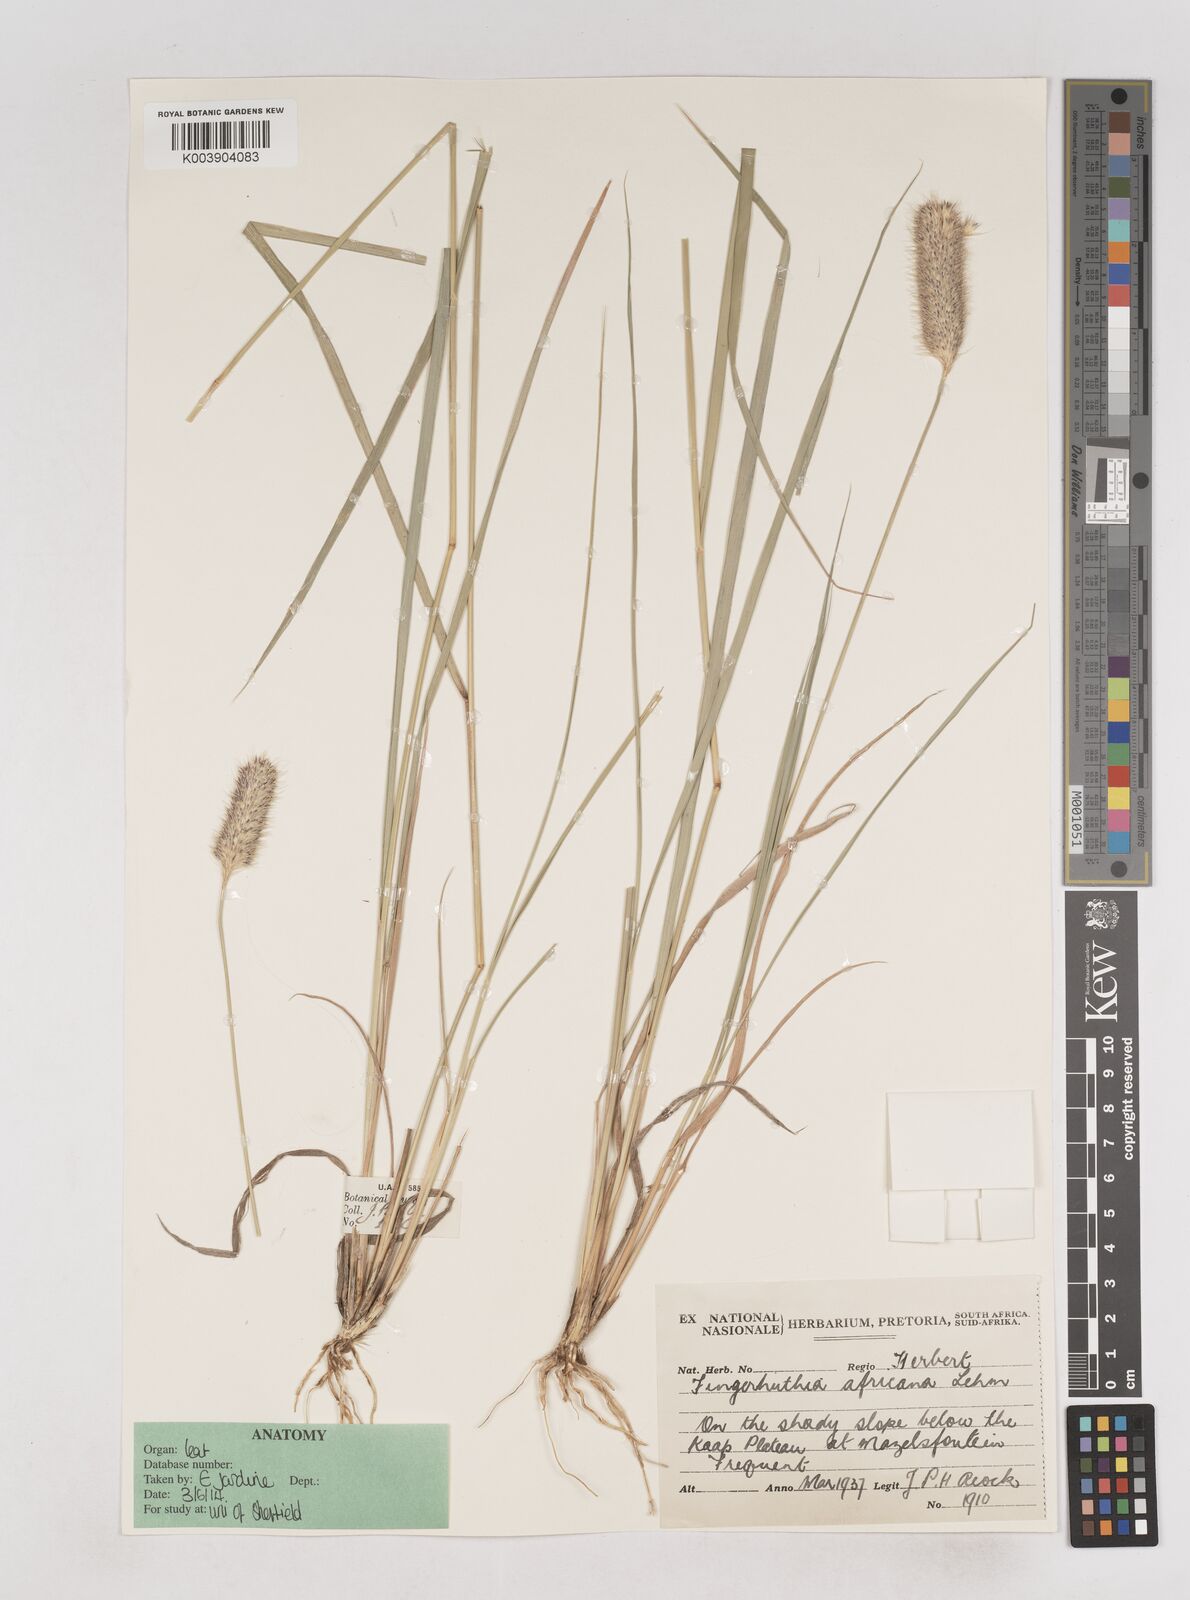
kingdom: Plantae
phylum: Tracheophyta
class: Liliopsida
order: Poales
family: Poaceae
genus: Fingerhuthia
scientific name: Fingerhuthia africana
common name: Zulu fescue
